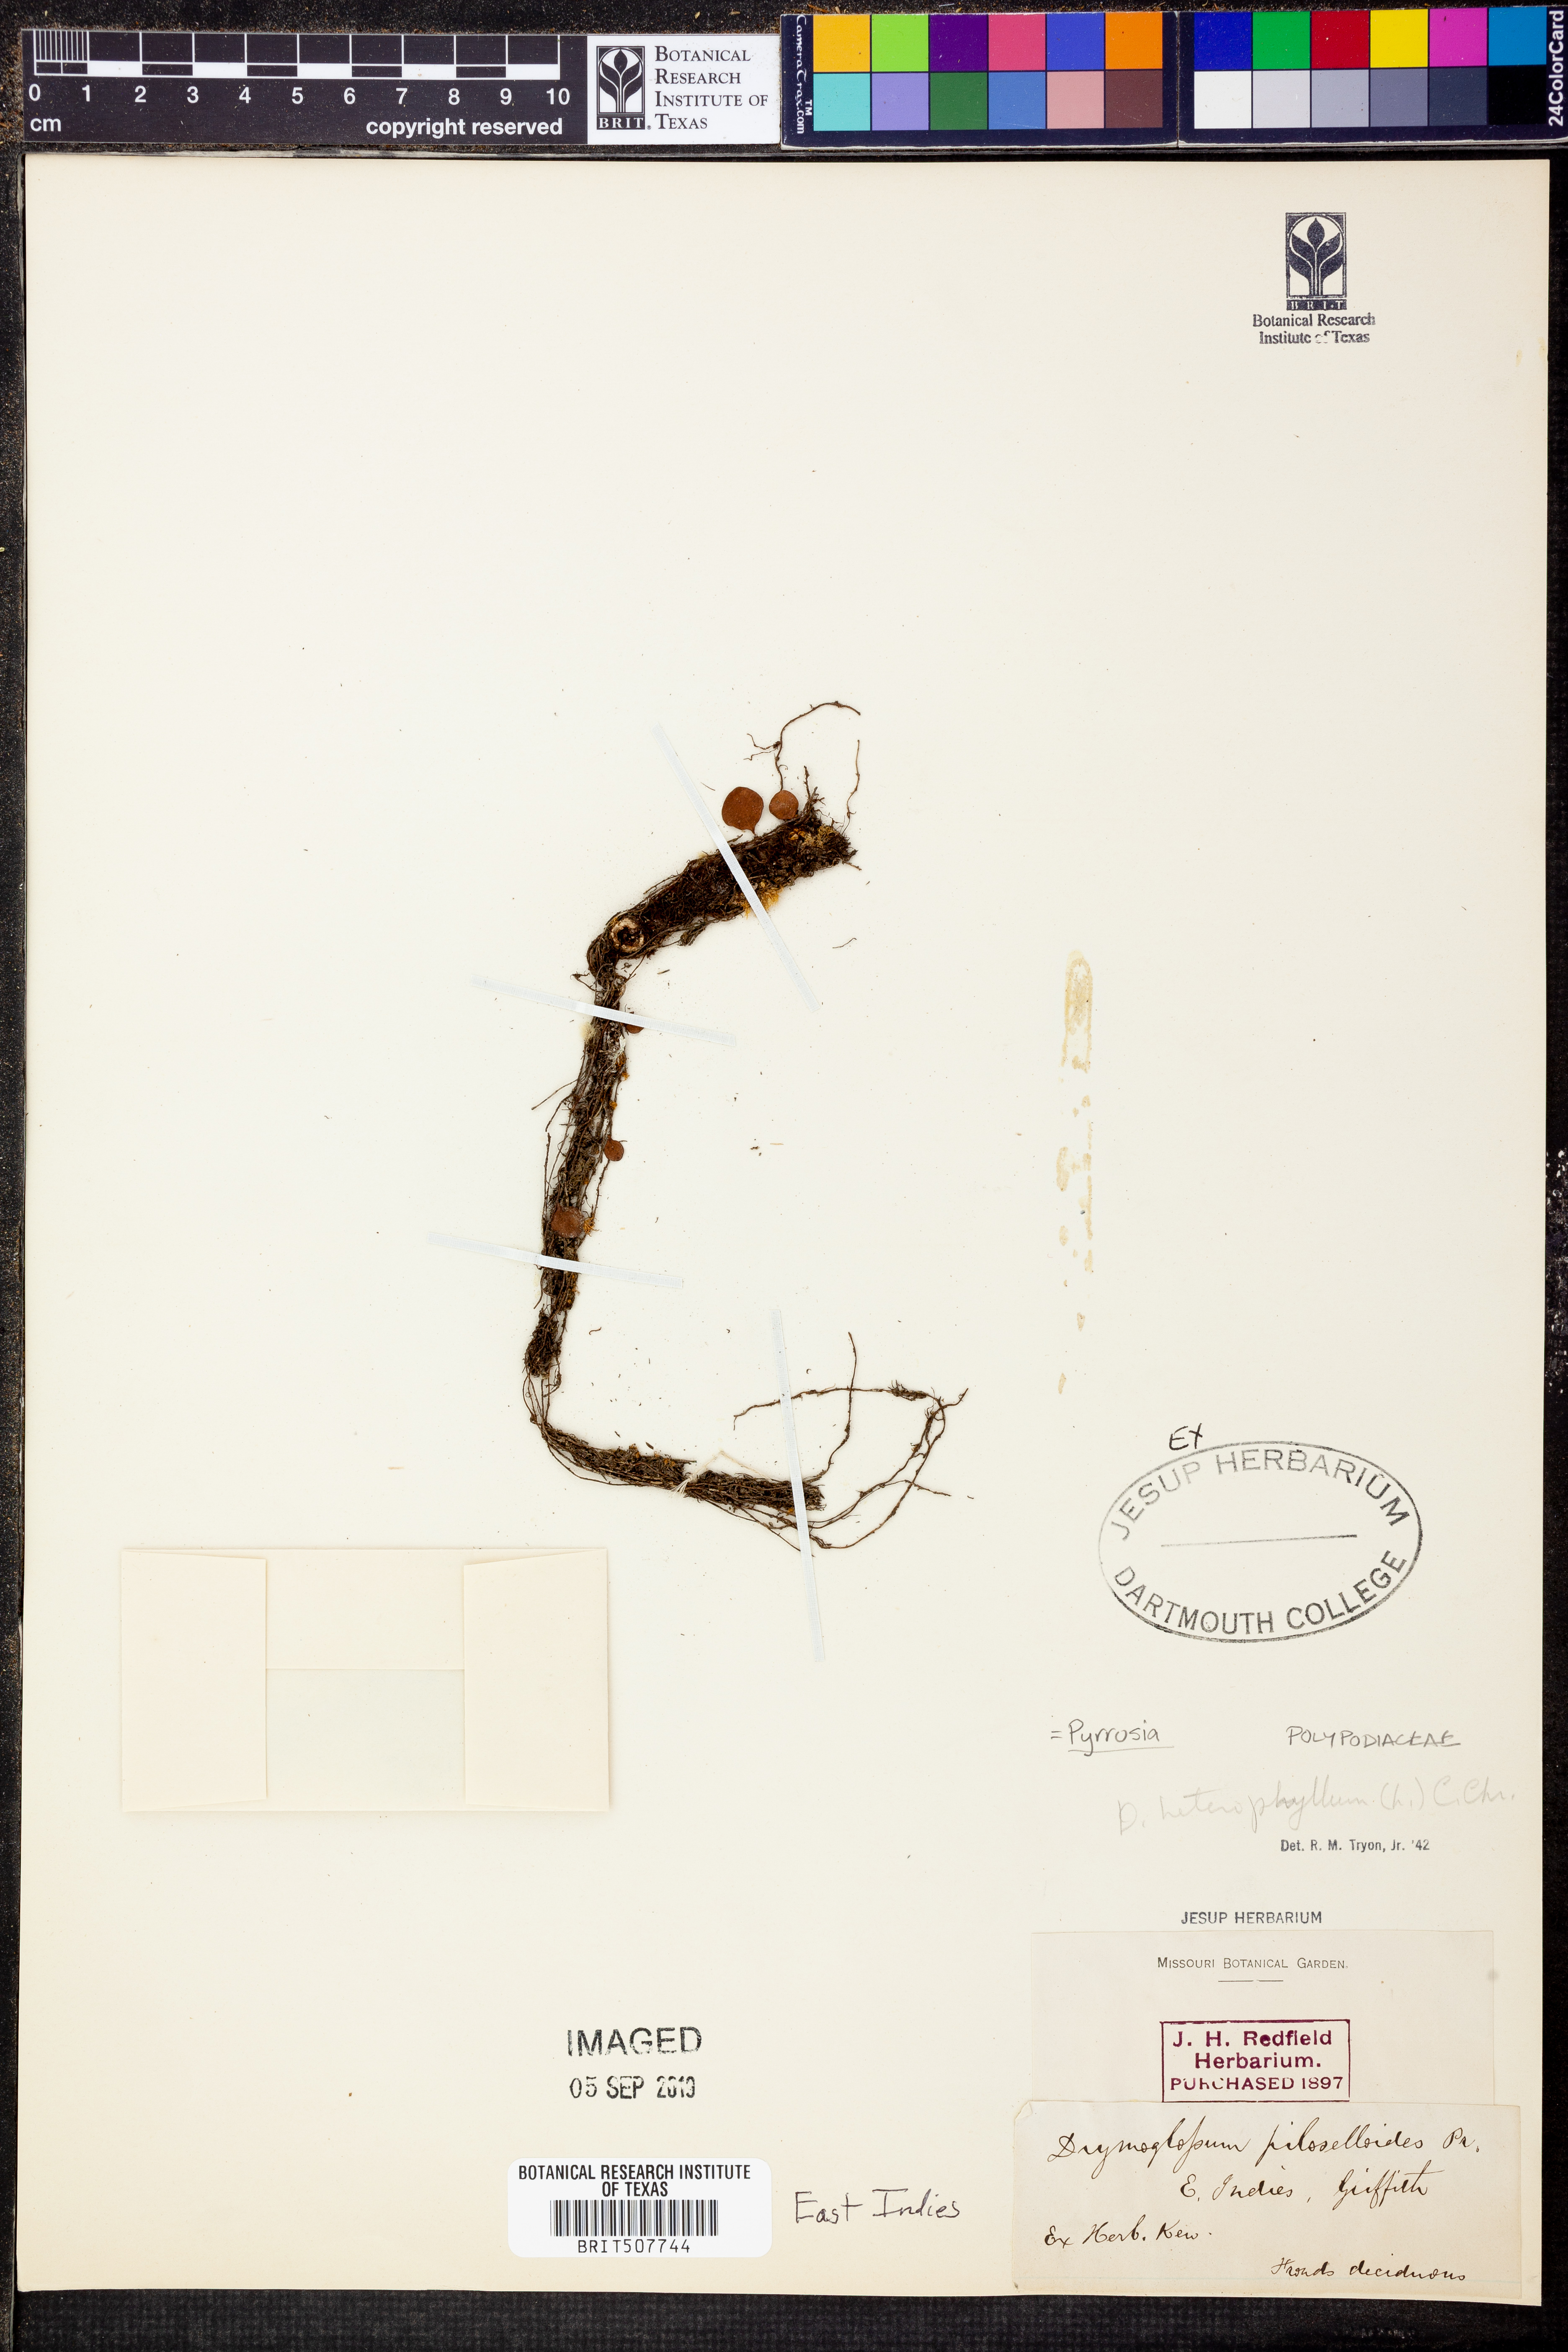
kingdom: Plantae
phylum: Tracheophyta
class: Polypodiopsida
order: Polypodiales
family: Polypodiaceae
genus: Pyrrosia
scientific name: Pyrrosia
